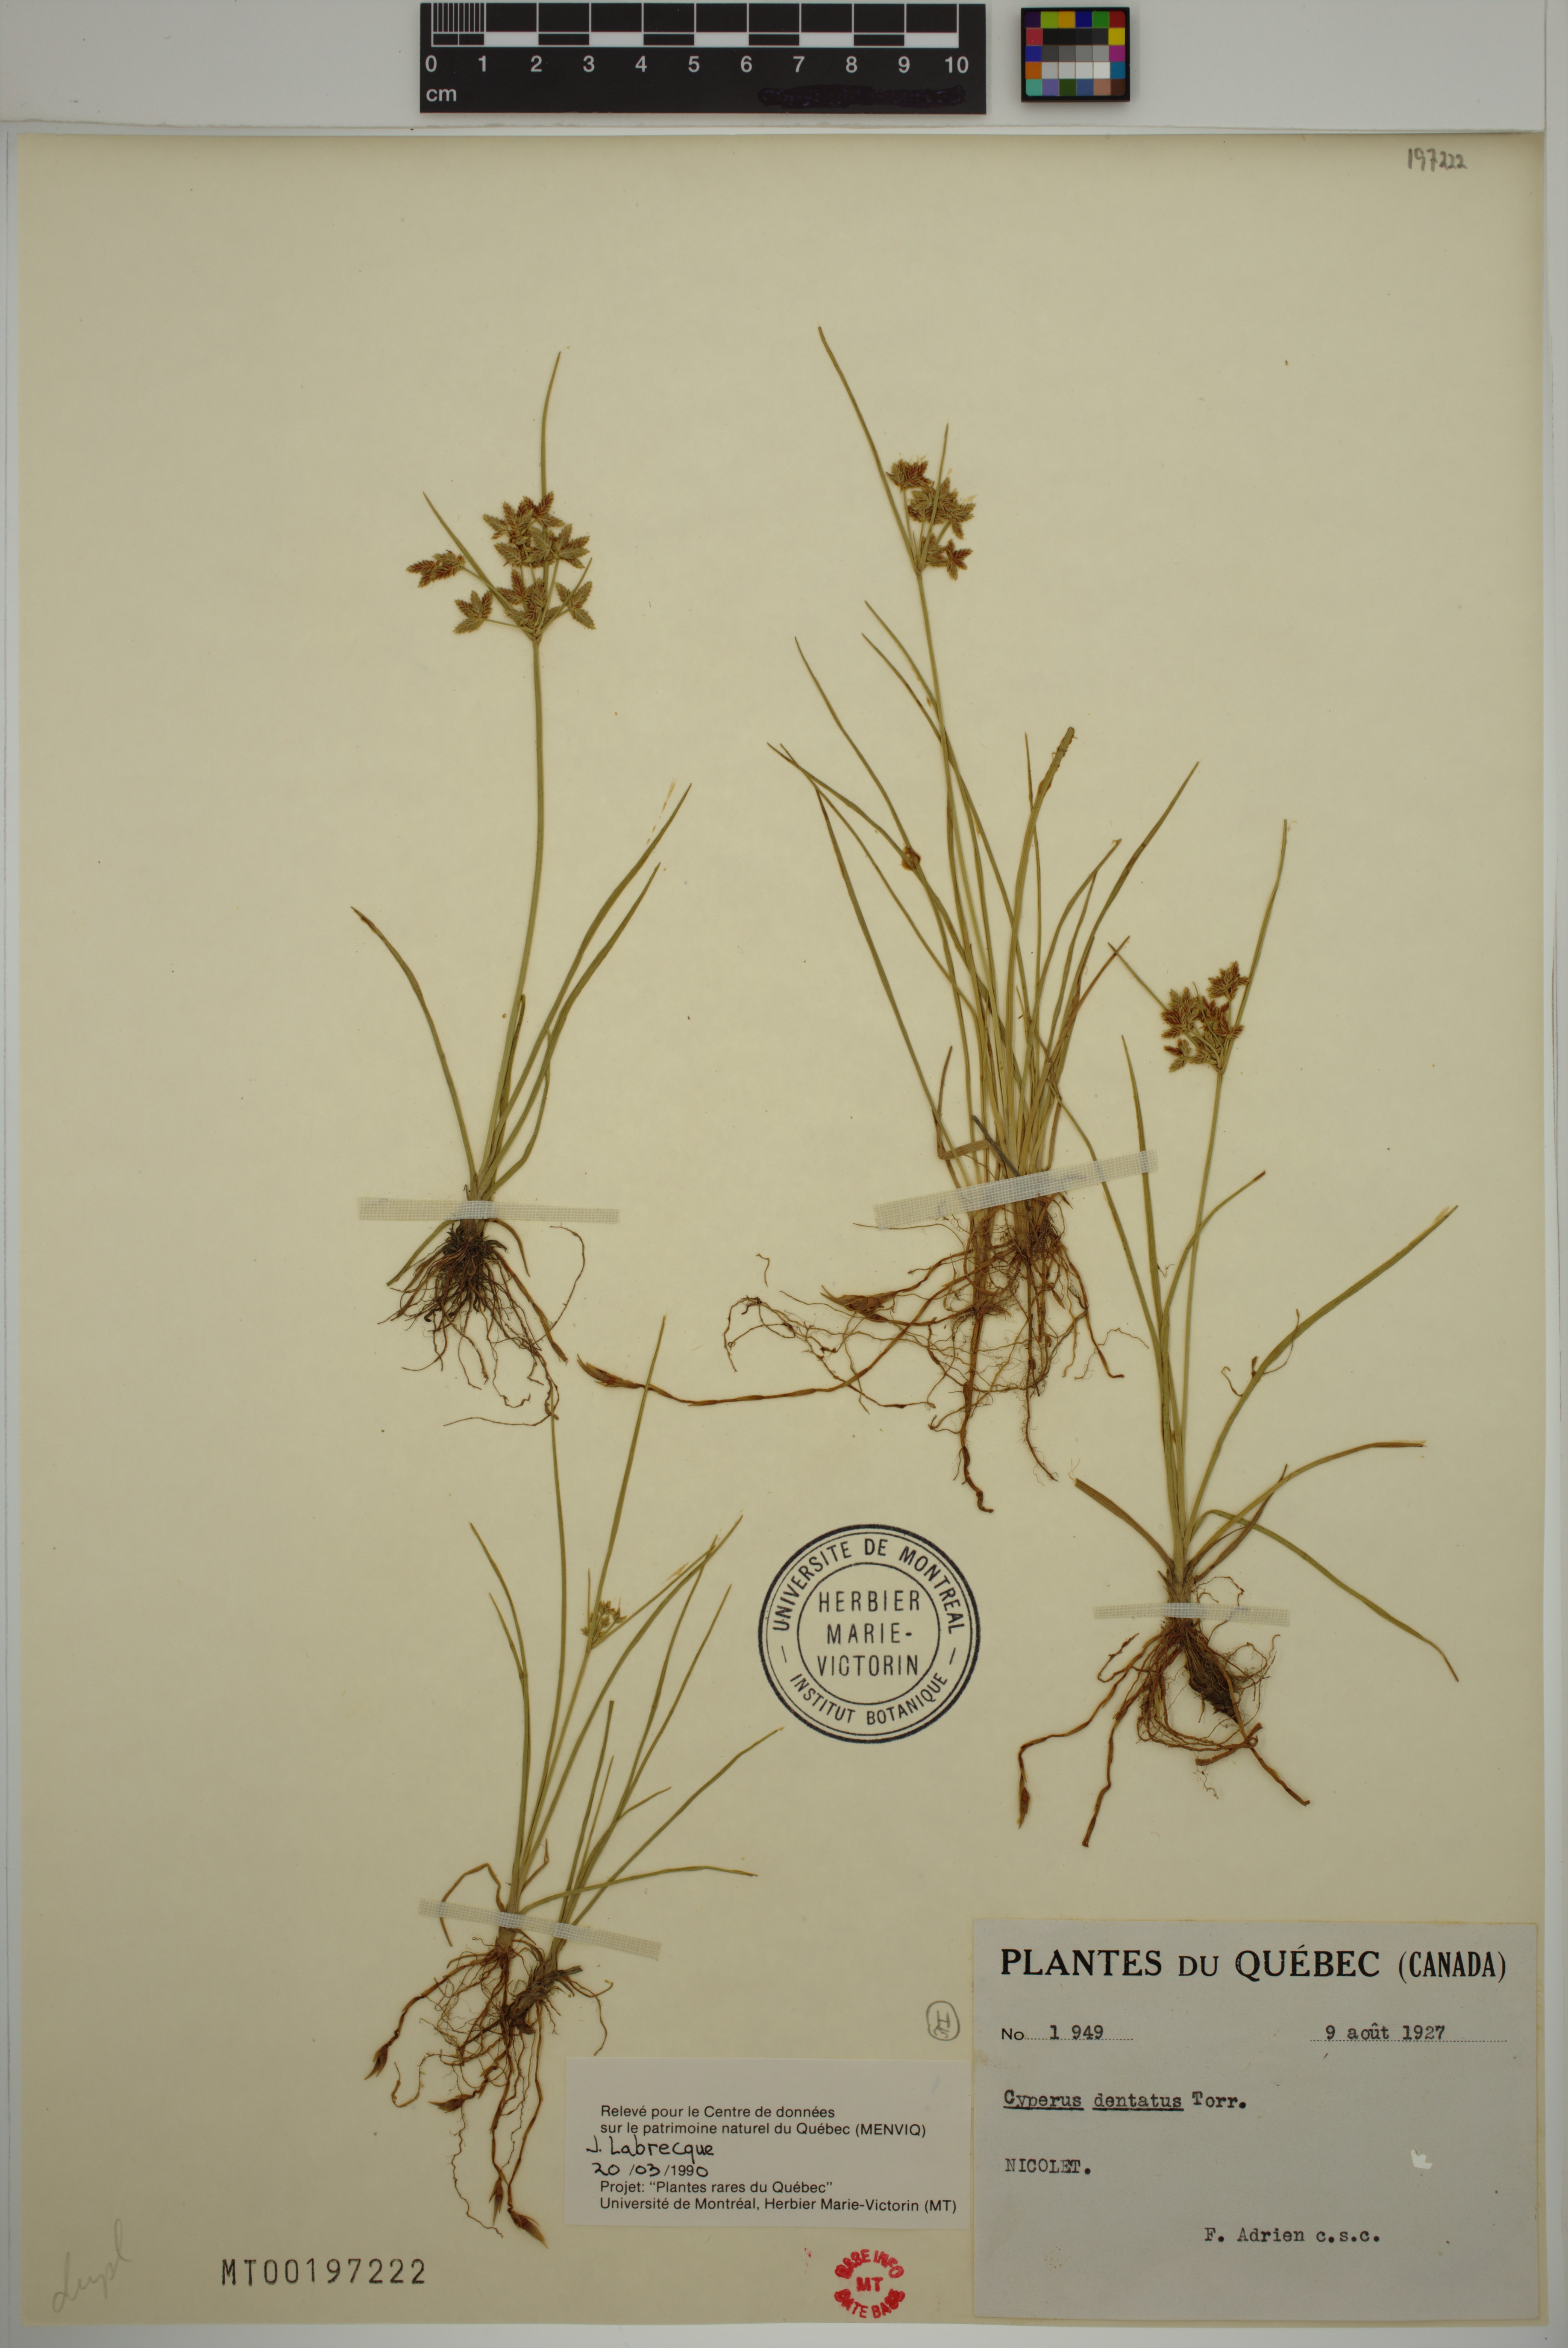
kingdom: Plantae
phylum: Tracheophyta
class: Liliopsida
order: Poales
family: Cyperaceae
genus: Cyperus
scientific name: Cyperus dentatus
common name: Dentate umbrella sedge
